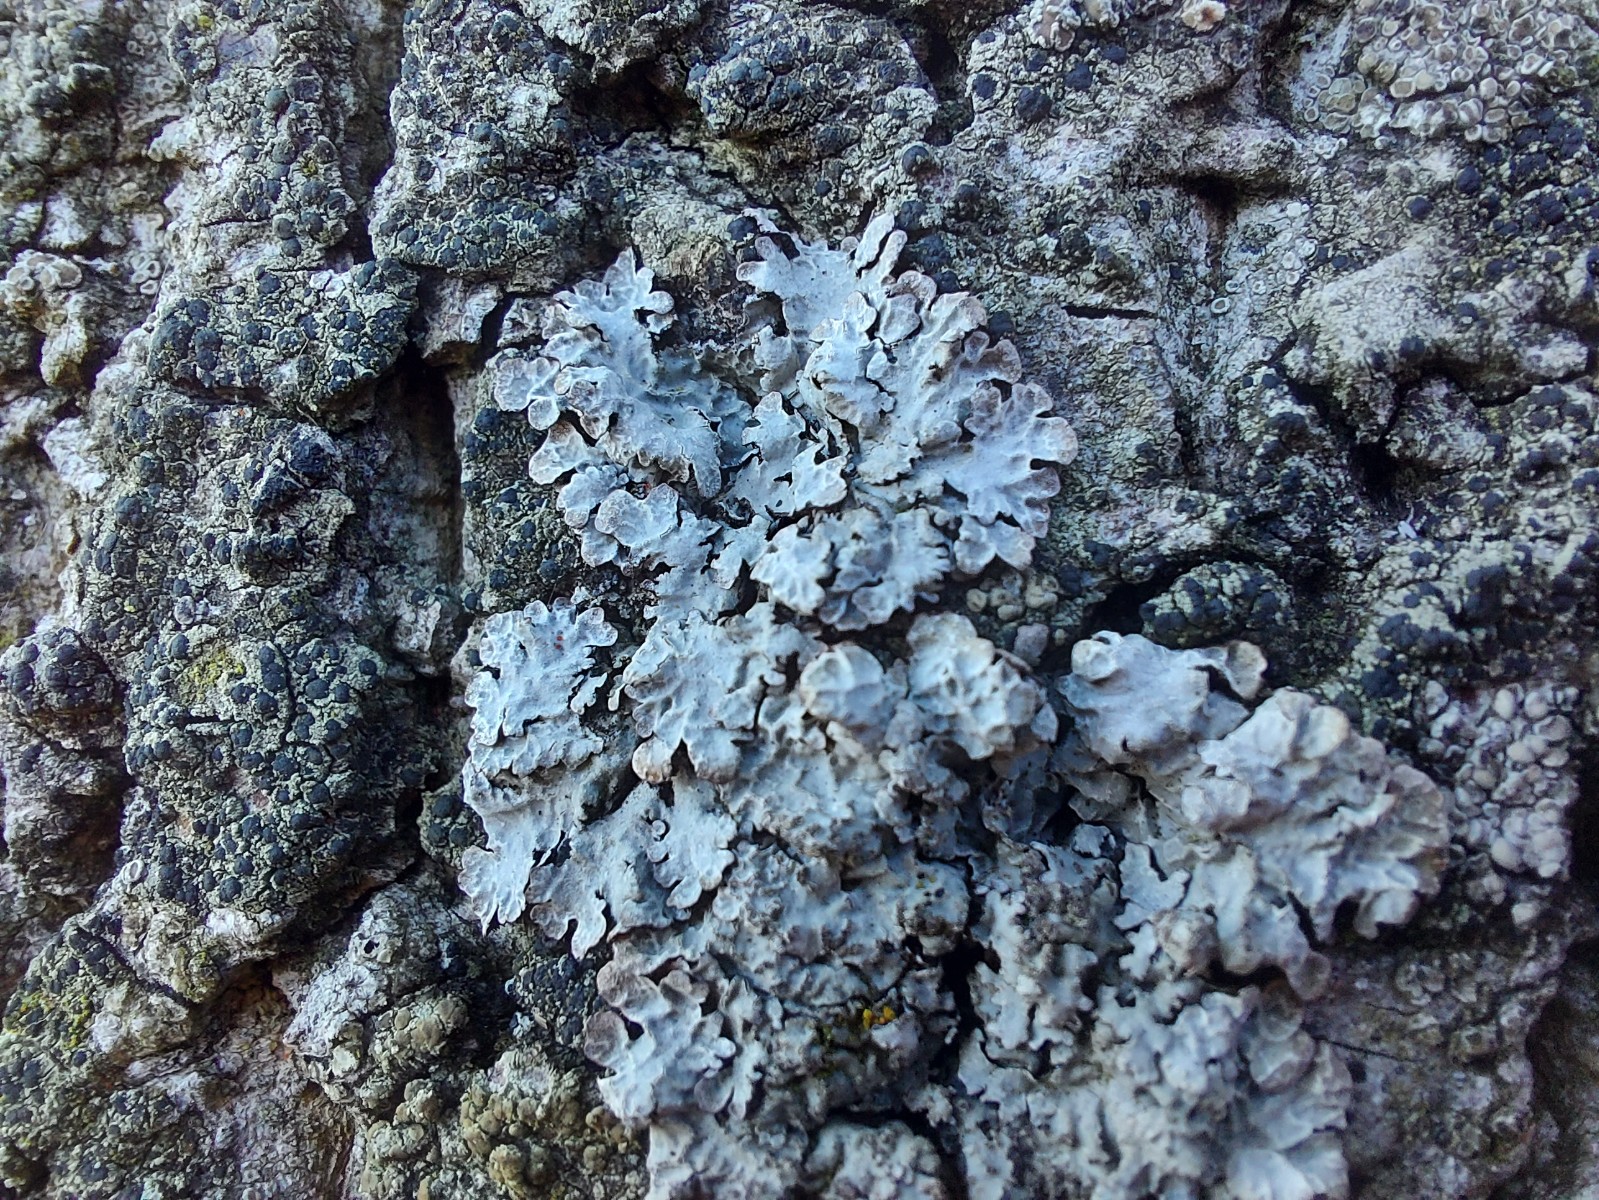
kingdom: Fungi
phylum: Ascomycota
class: Lecanoromycetes
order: Lecanorales
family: Parmeliaceae
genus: Parmelia
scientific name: Parmelia sulcata
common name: rynket skållav
